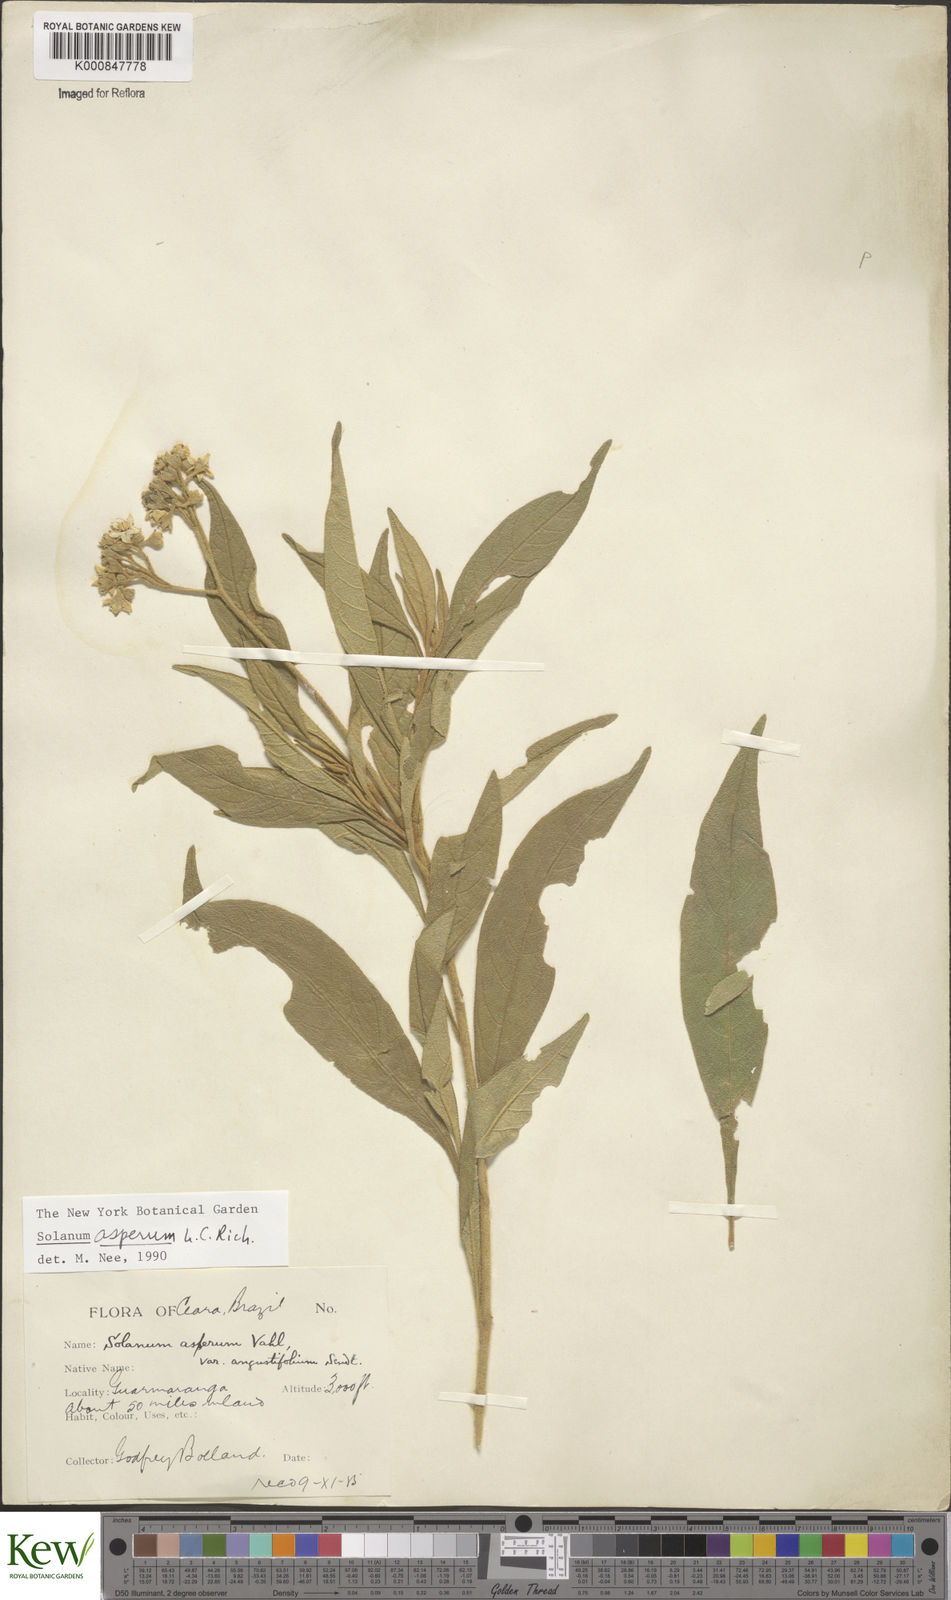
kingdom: Plantae
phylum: Tracheophyta
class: Magnoliopsida
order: Solanales
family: Solanaceae
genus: Solanum
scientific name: Solanum asperum
